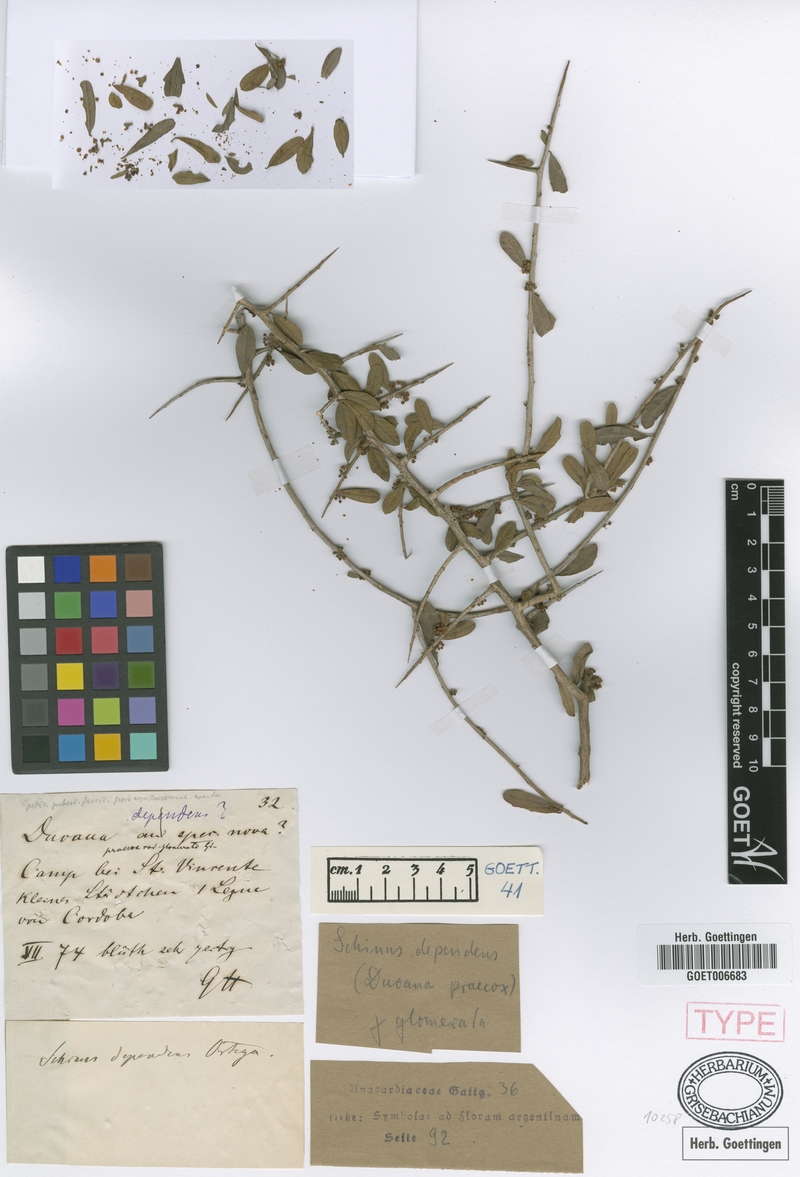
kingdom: Plantae
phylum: Tracheophyta
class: Magnoliopsida
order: Sapindales
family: Anacardiaceae
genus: Schinus
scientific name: Schinus fasciculata
